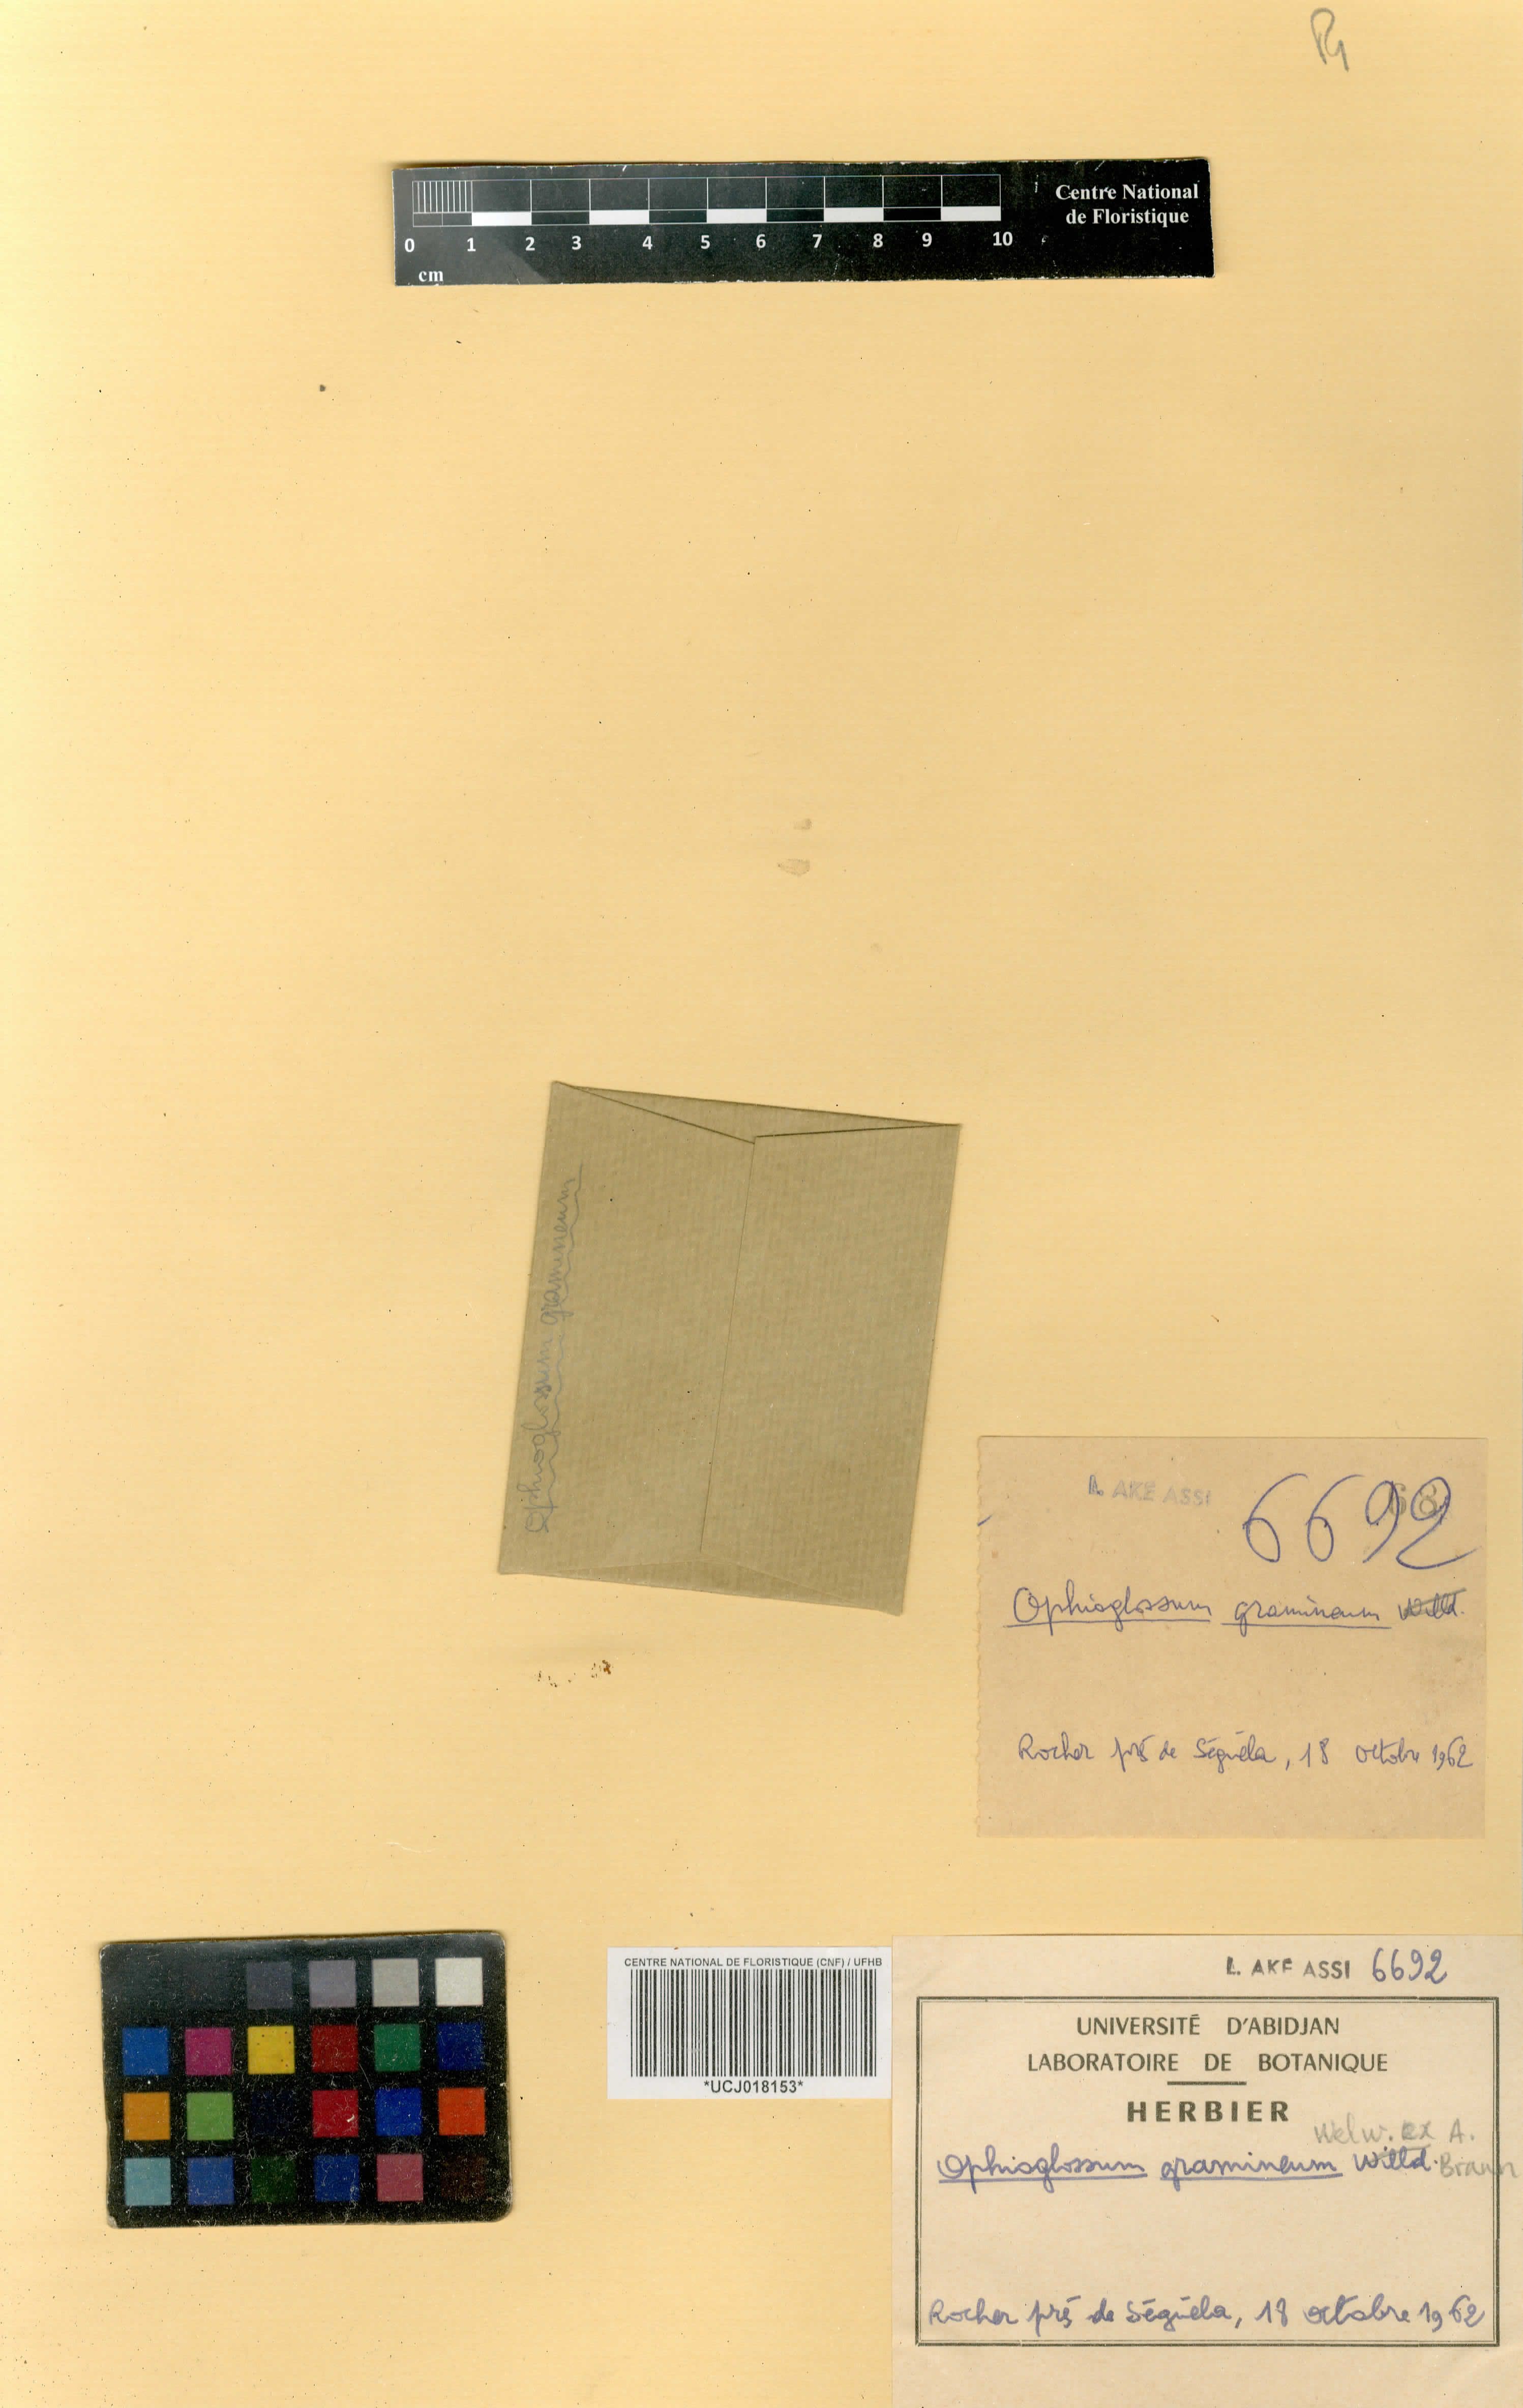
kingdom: Plantae
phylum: Tracheophyta
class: Polypodiopsida
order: Ophioglossales
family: Ophioglossaceae
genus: Ophioglossum
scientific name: Ophioglossum gramineum
